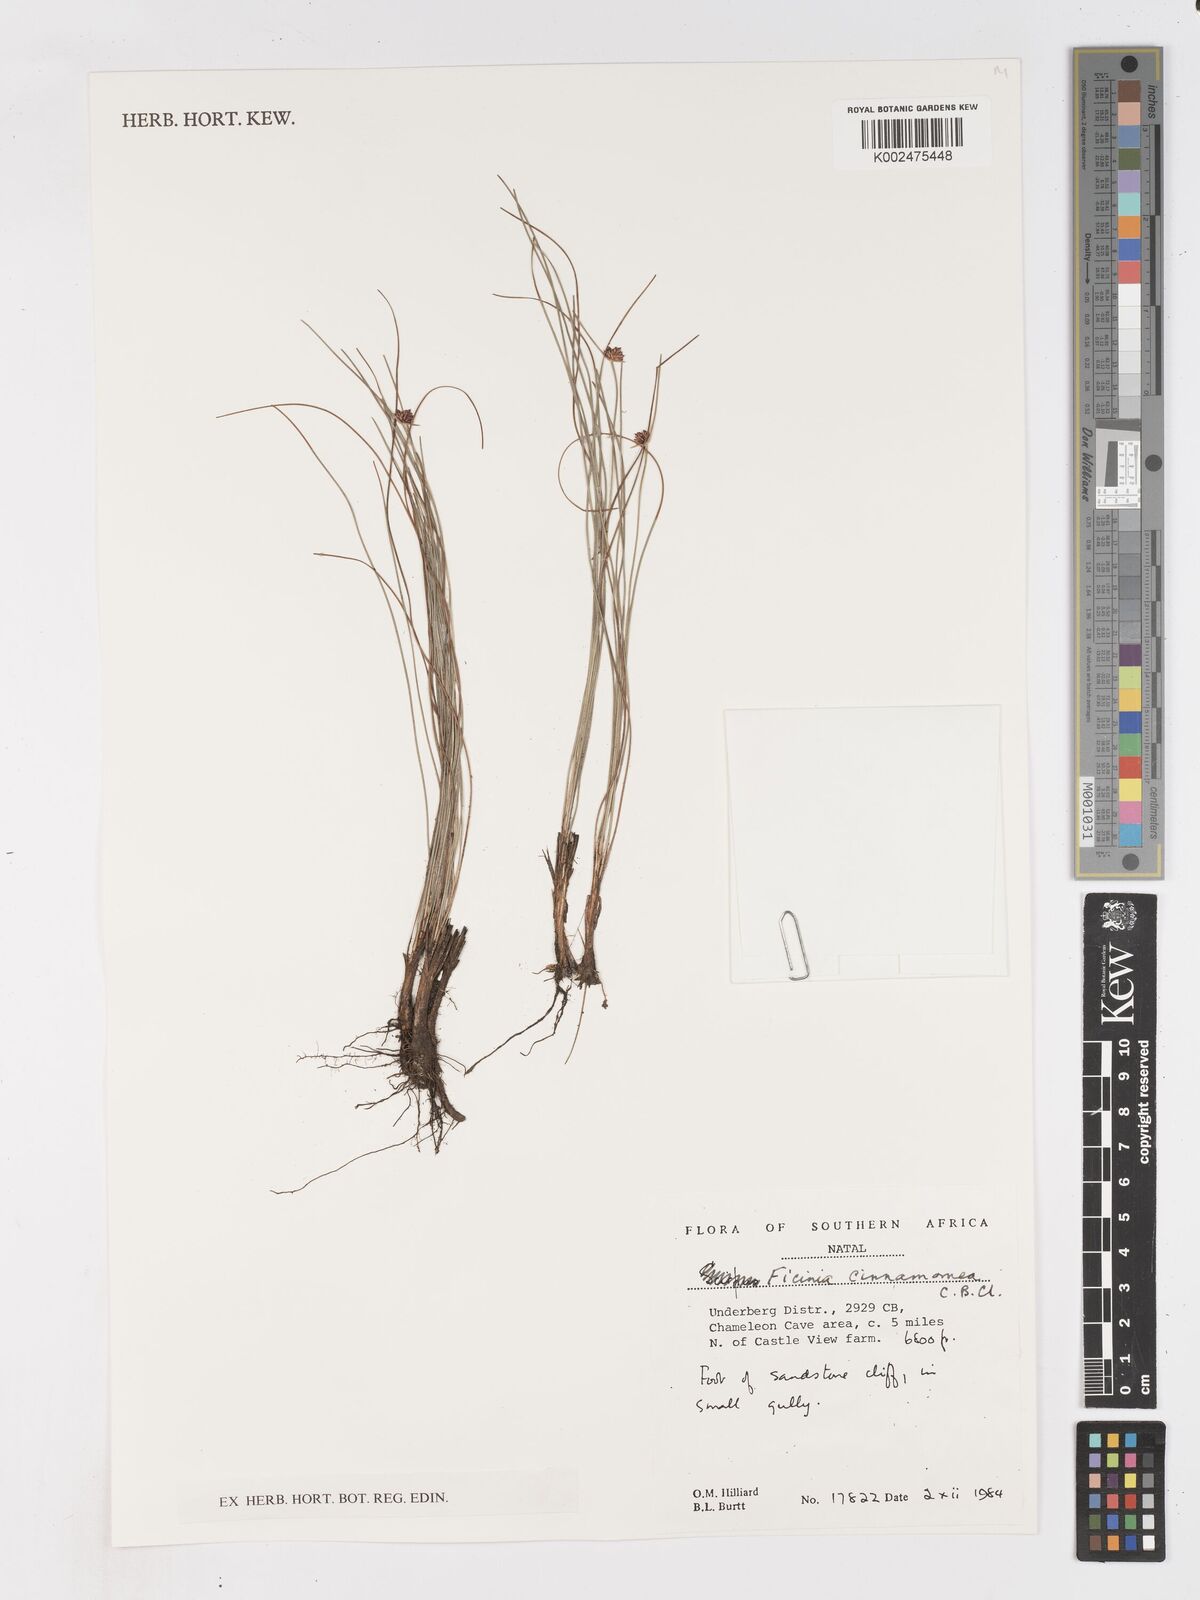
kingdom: Plantae
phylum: Tracheophyta
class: Liliopsida
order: Poales
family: Cyperaceae
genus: Ficinia
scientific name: Ficinia cinnamomea
